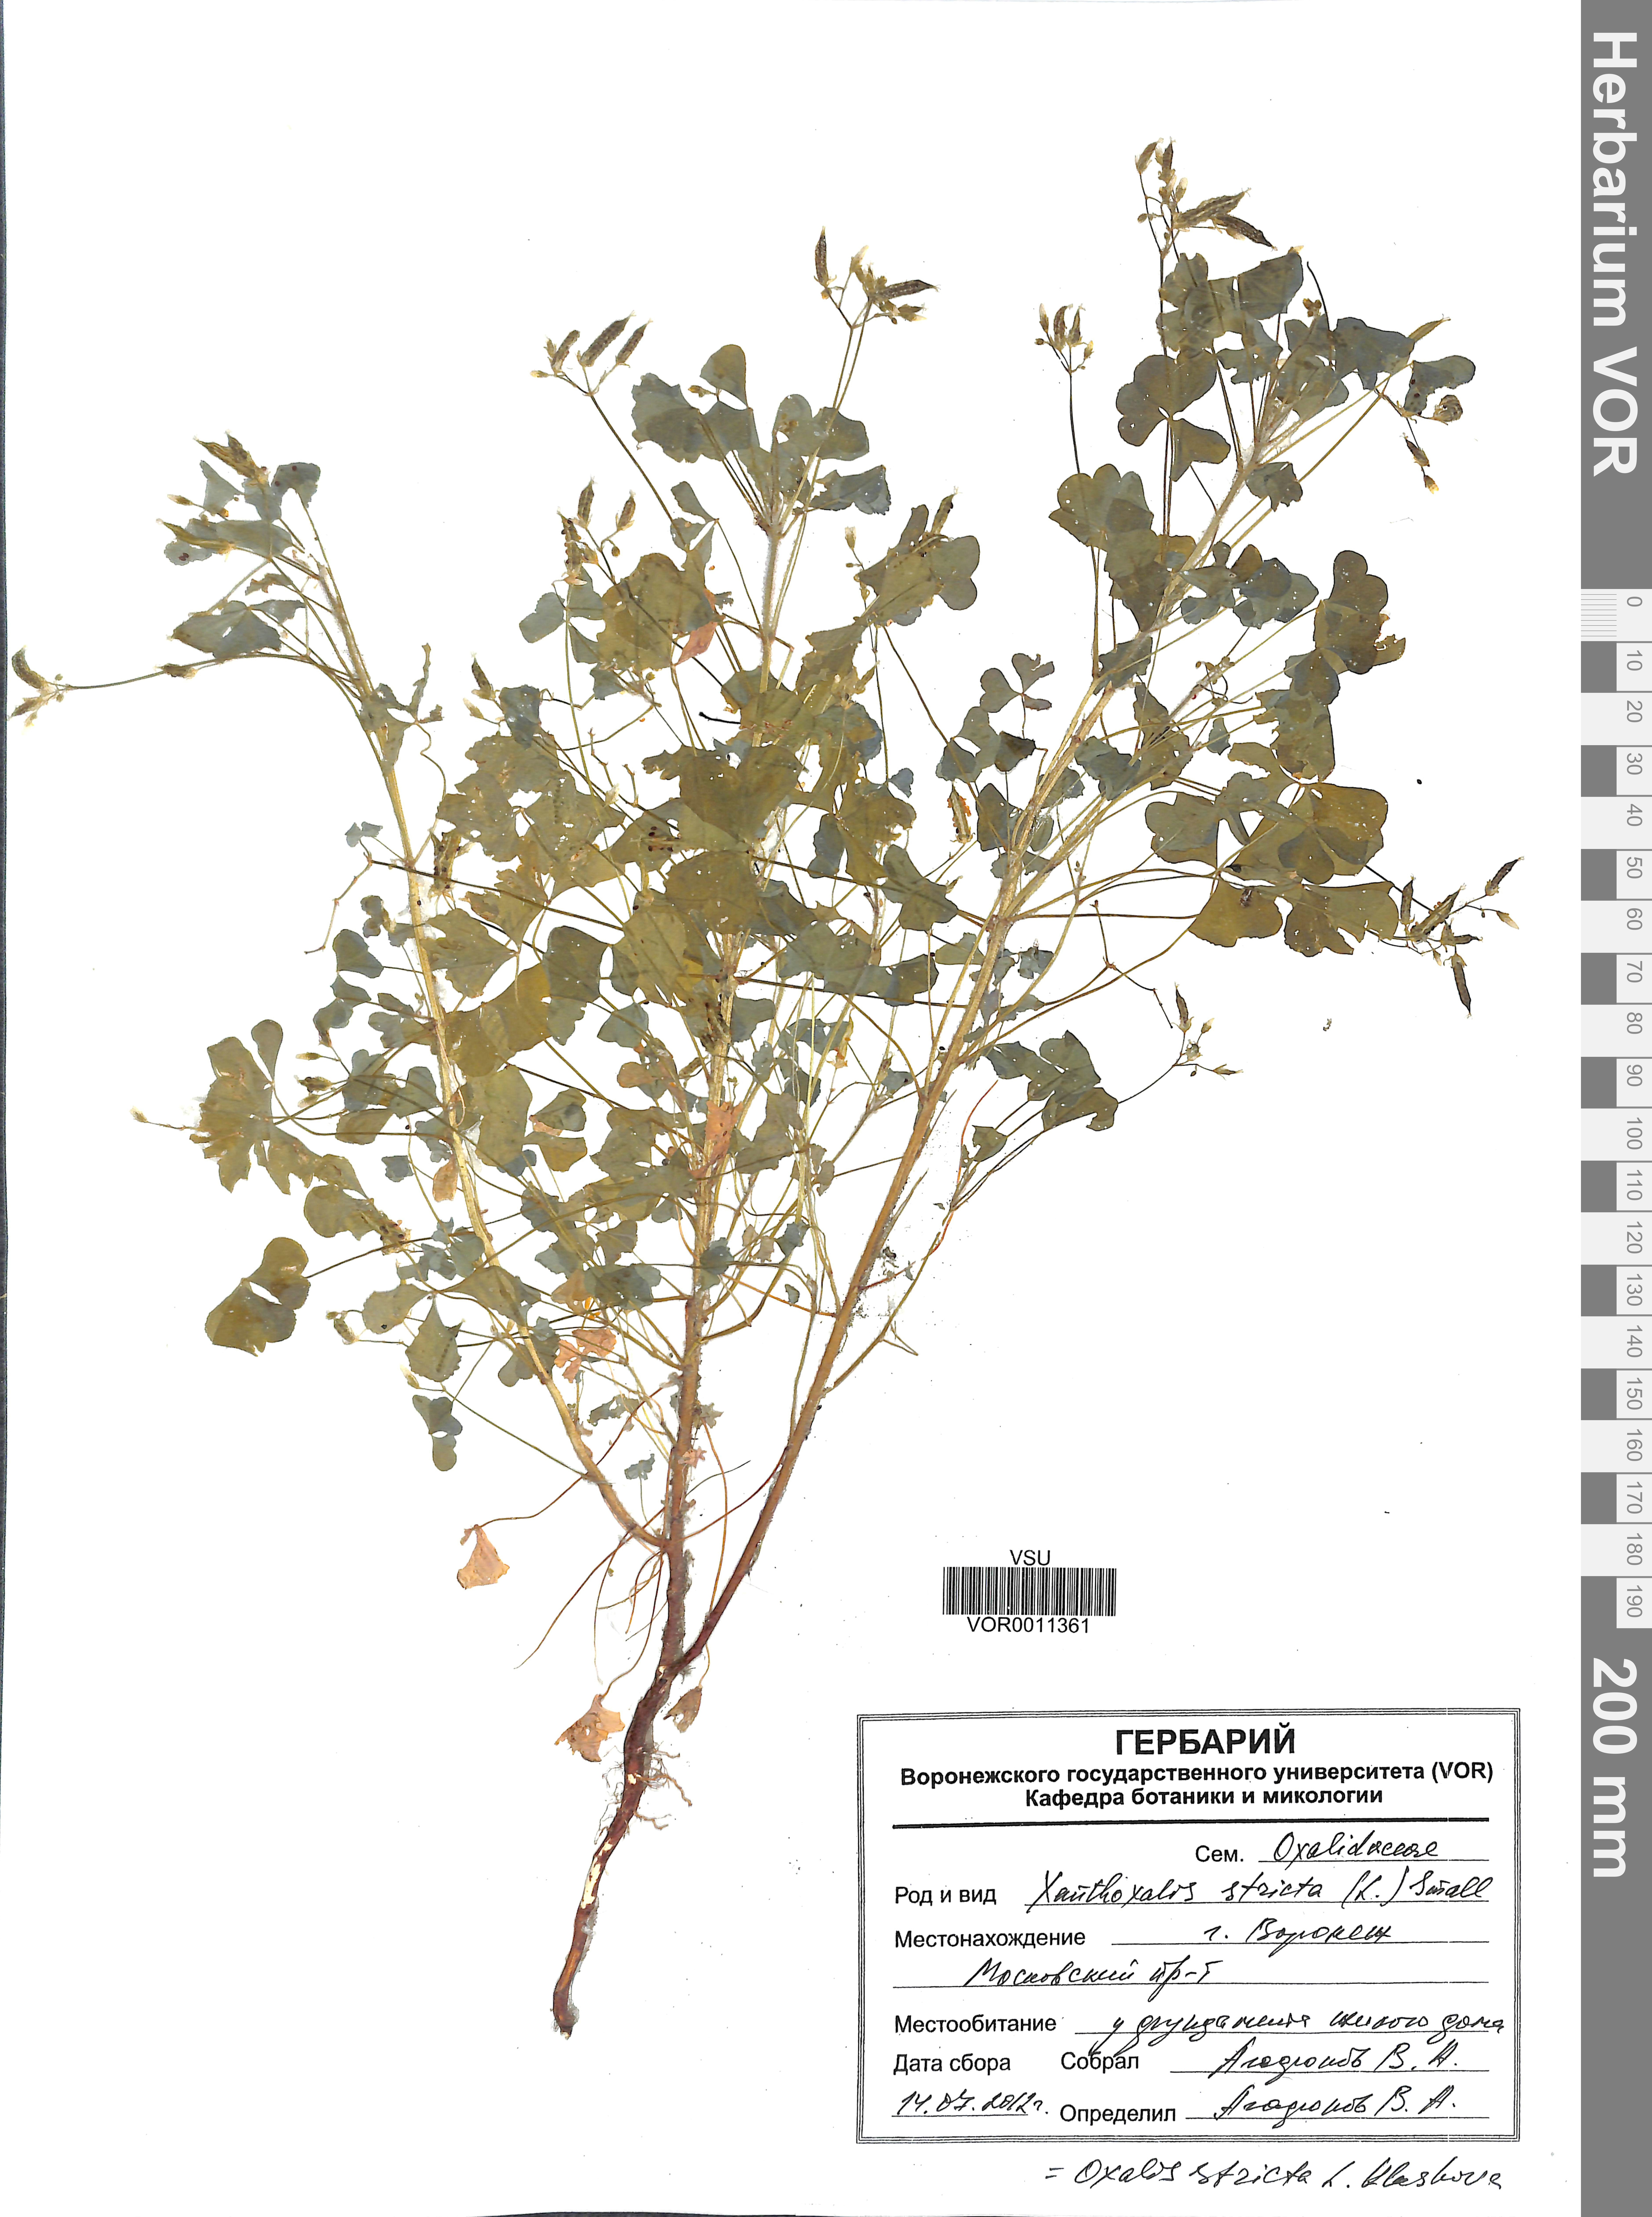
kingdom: Plantae
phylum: Tracheophyta
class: Magnoliopsida
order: Oxalidales
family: Oxalidaceae
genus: Oxalis
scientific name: Oxalis stricta
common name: Upright yellow-sorrel
